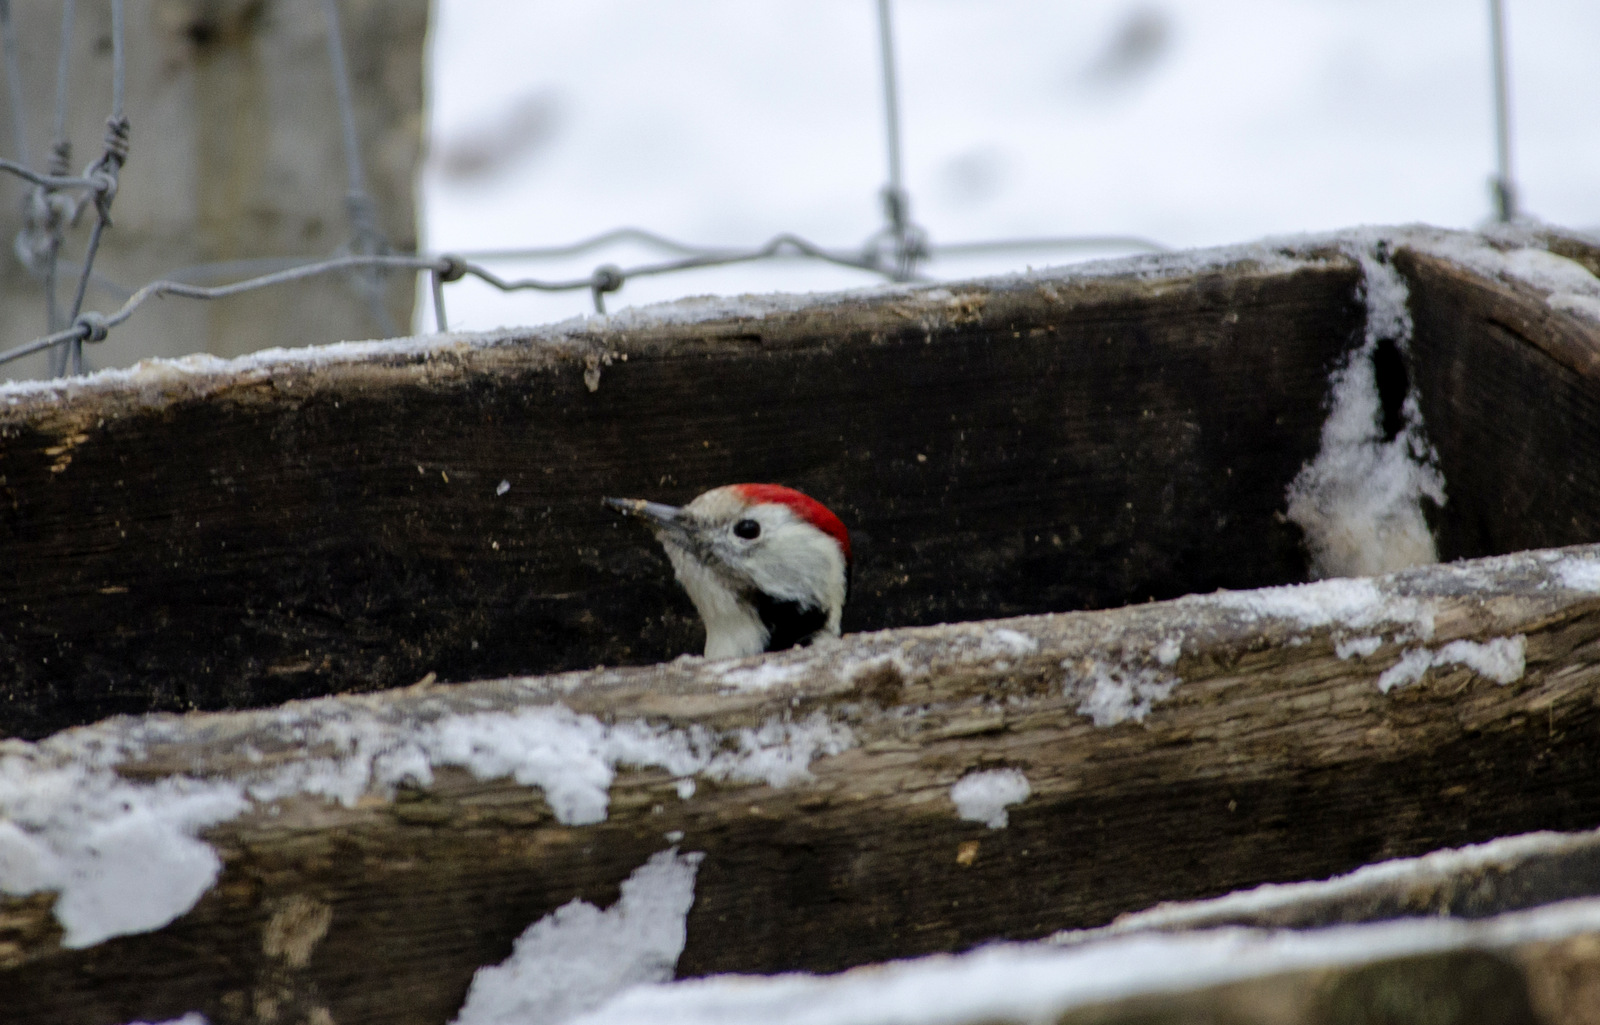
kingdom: Animalia
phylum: Chordata
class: Aves
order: Piciformes
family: Picidae
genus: Dendrocoptes
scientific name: Dendrocoptes medius
